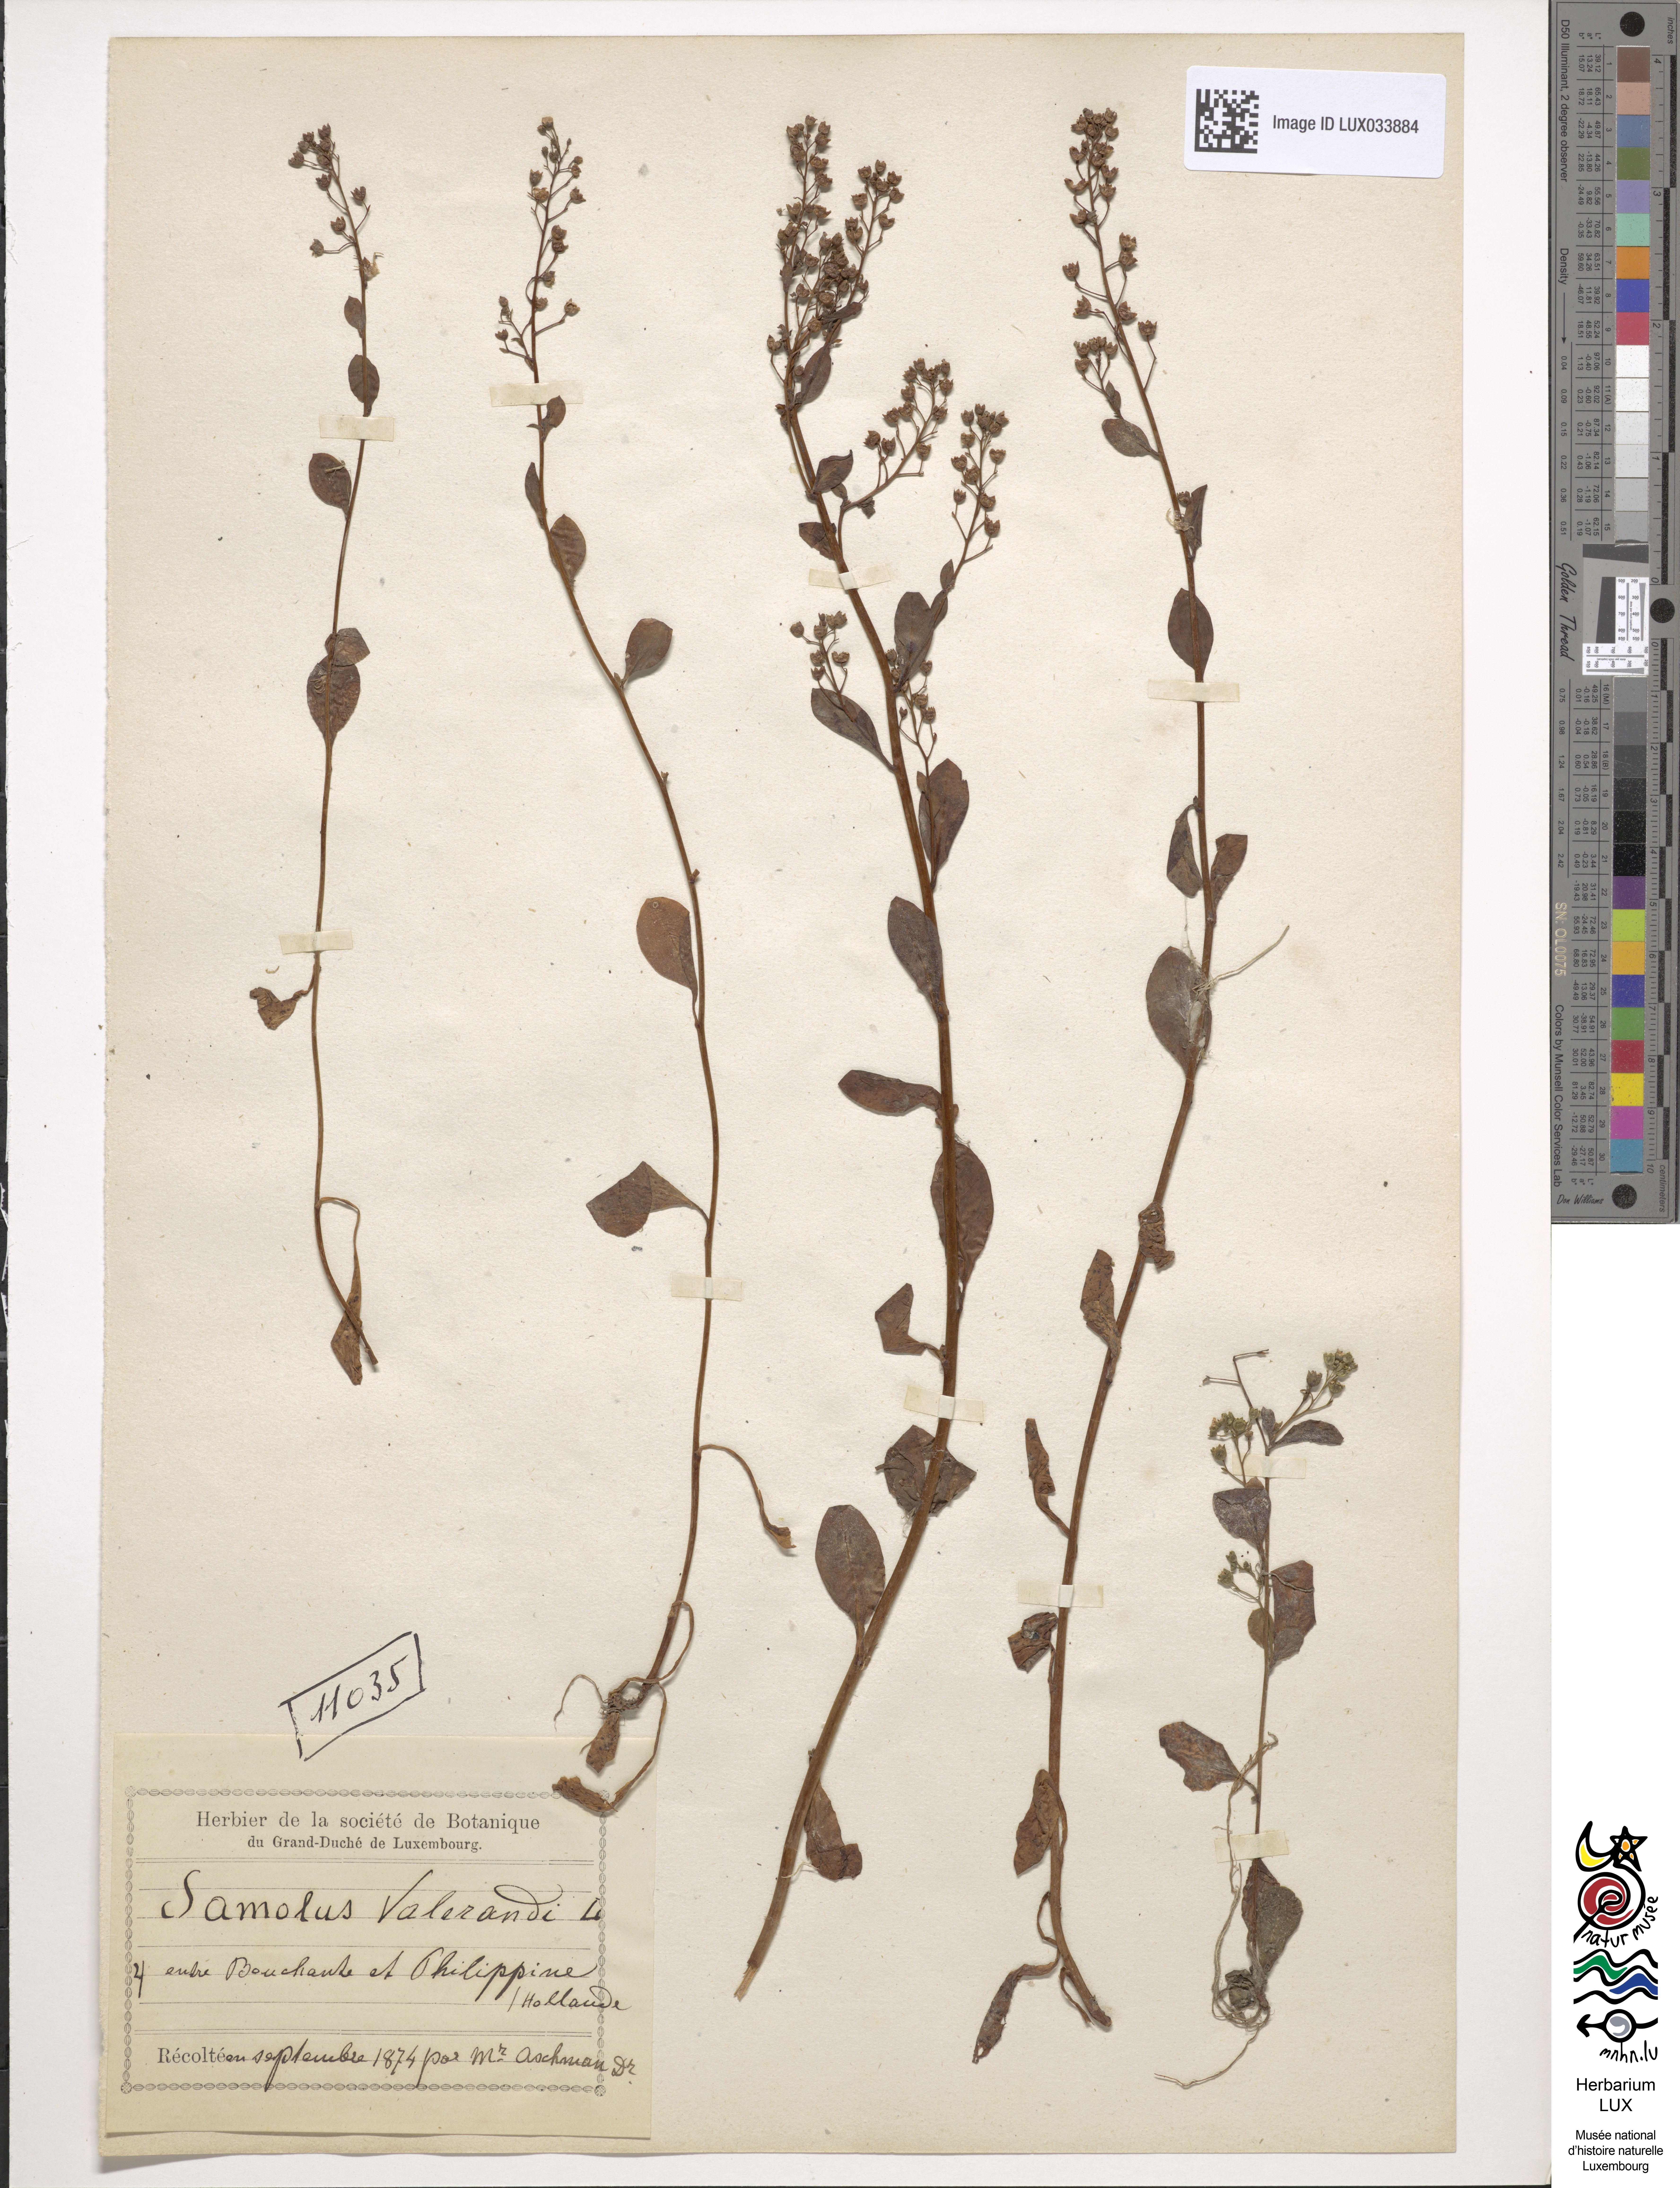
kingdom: Plantae
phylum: Tracheophyta
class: Magnoliopsida
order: Ericales
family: Primulaceae
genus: Samolus
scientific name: Samolus valerandi
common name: Brookweed
